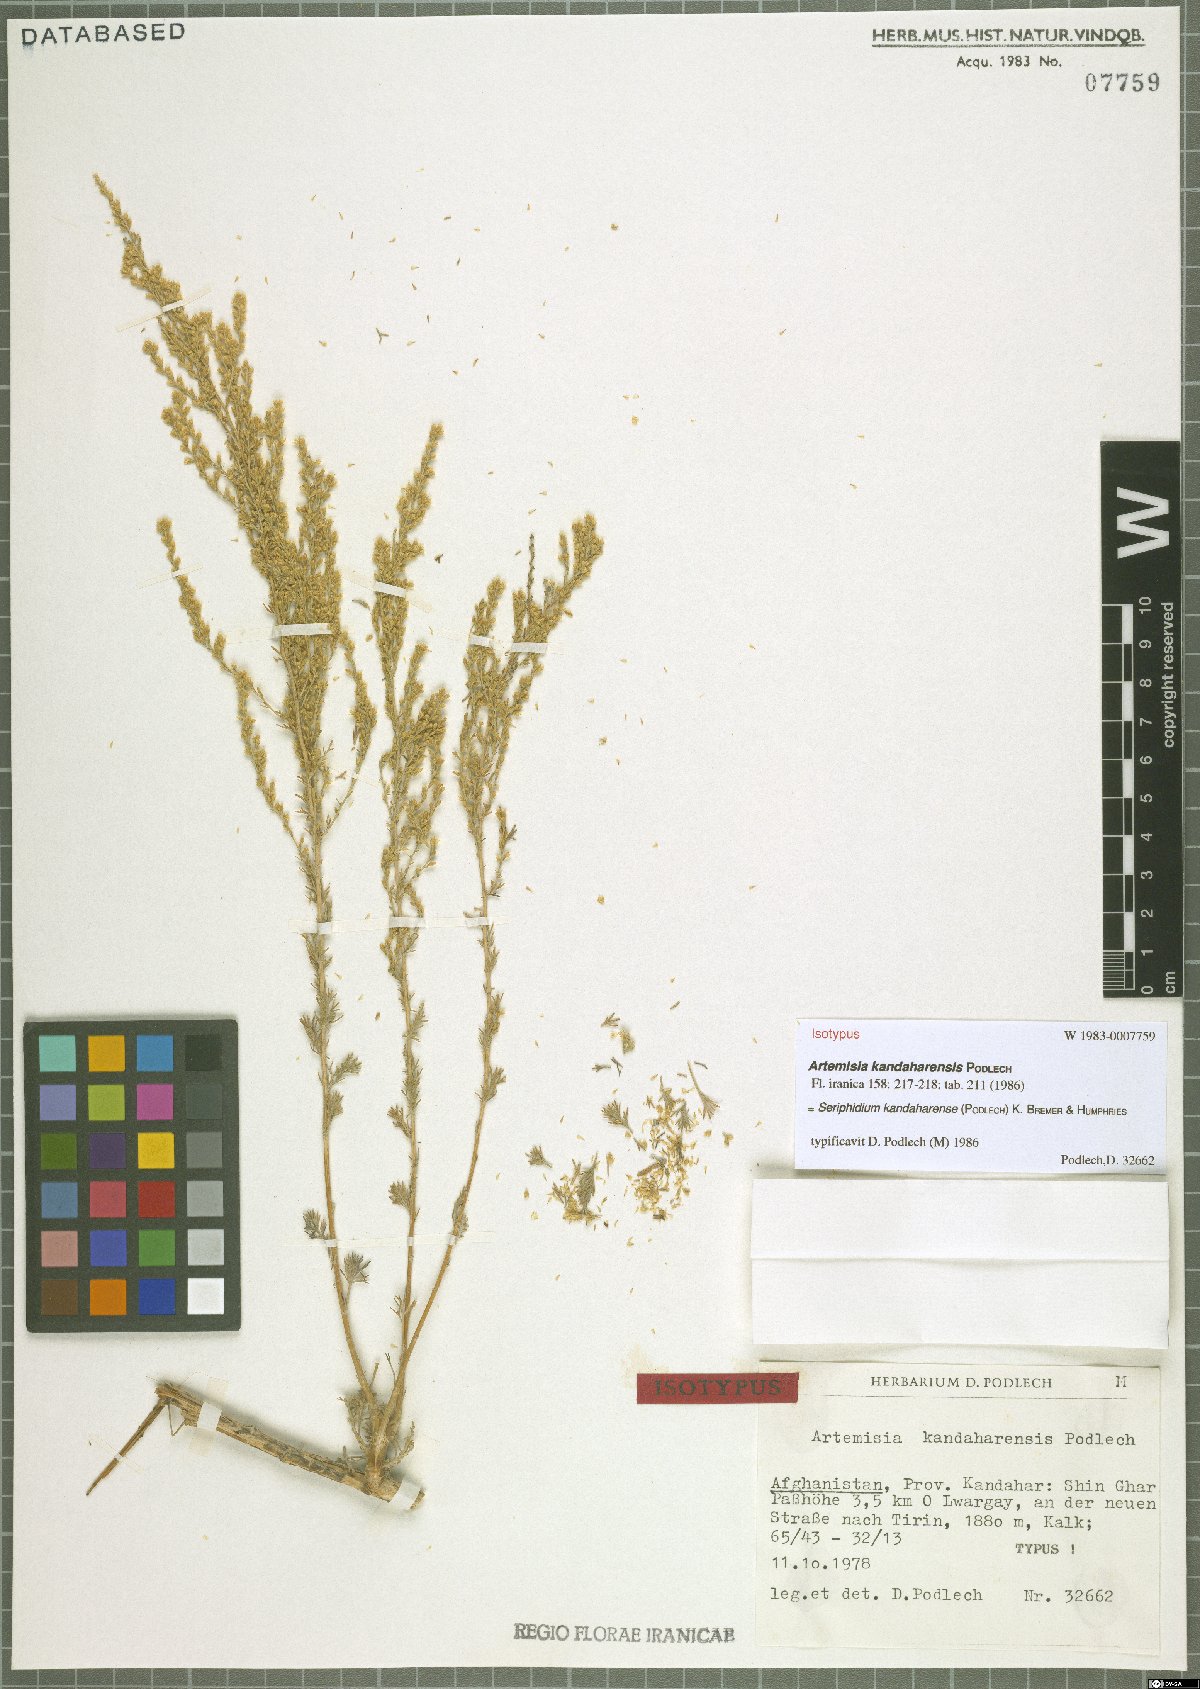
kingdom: Plantae
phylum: Tracheophyta
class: Magnoliopsida
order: Asterales
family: Asteraceae
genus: Artemisia
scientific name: Artemisia kandaharensis
